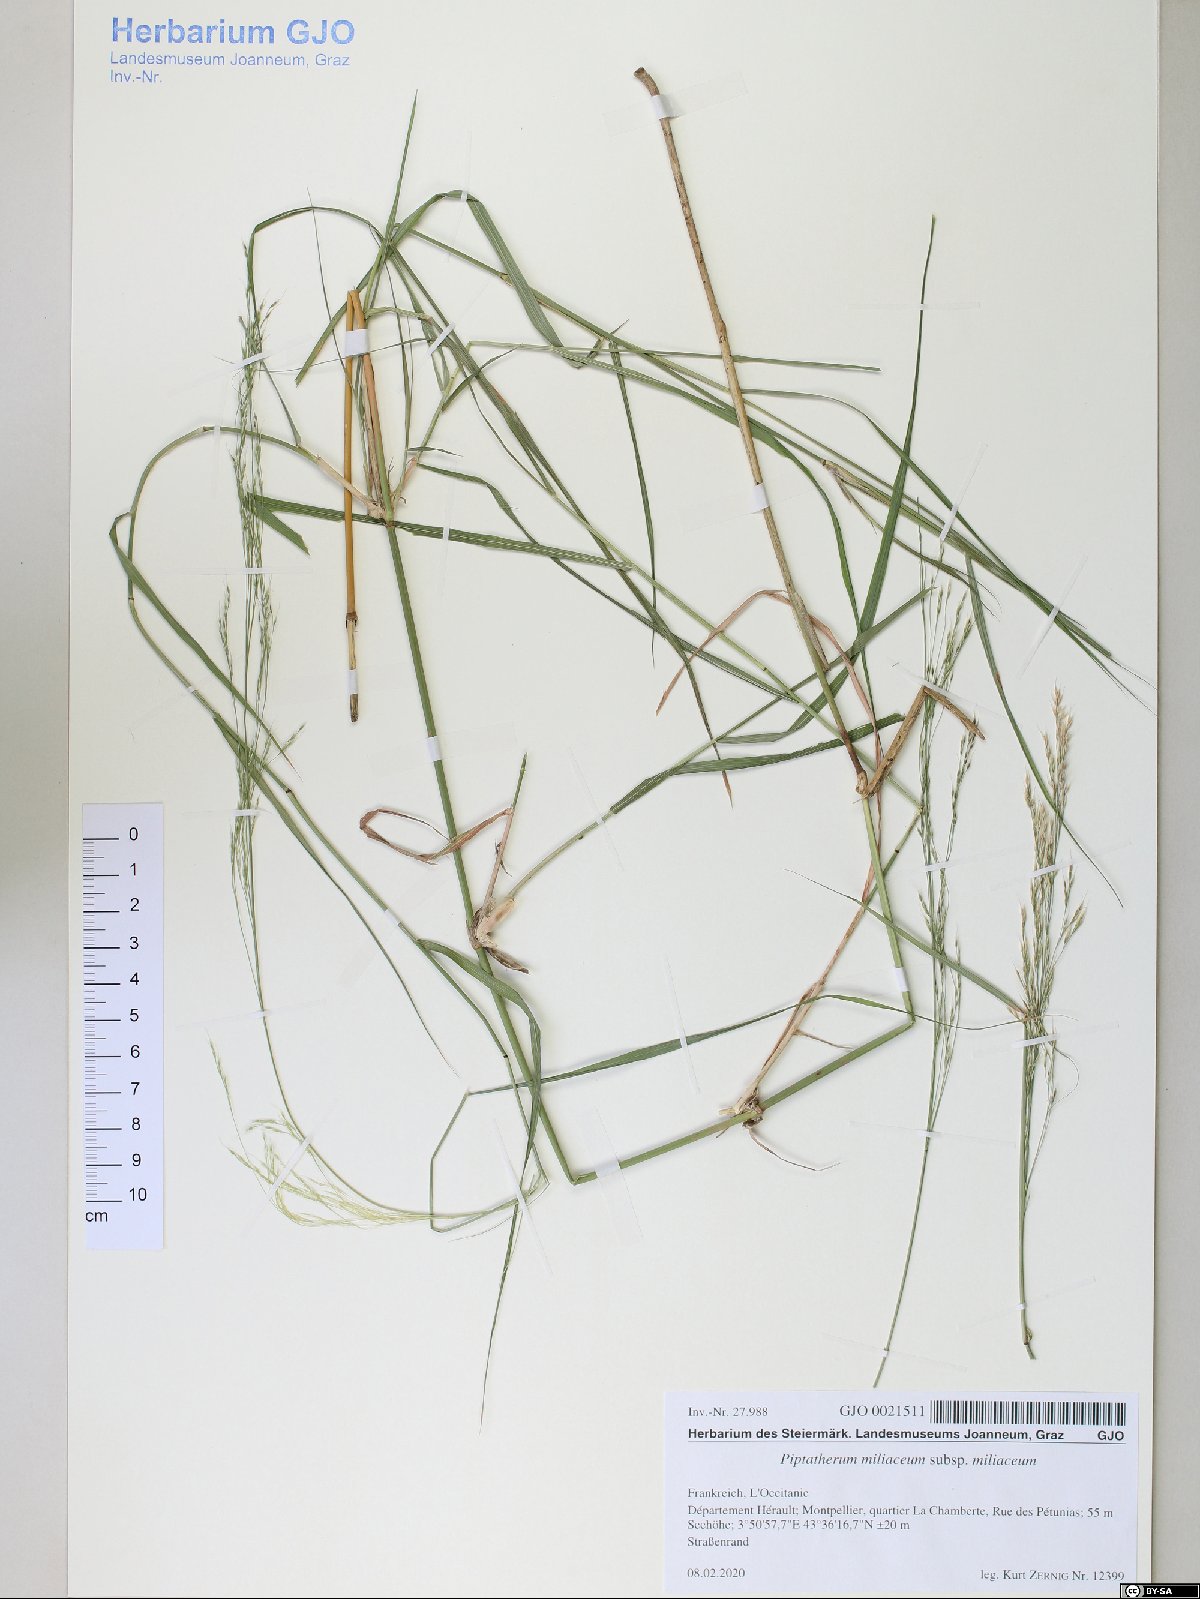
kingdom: Plantae
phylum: Tracheophyta
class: Liliopsida
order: Poales
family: Poaceae
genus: Oloptum
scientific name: Oloptum miliaceum
